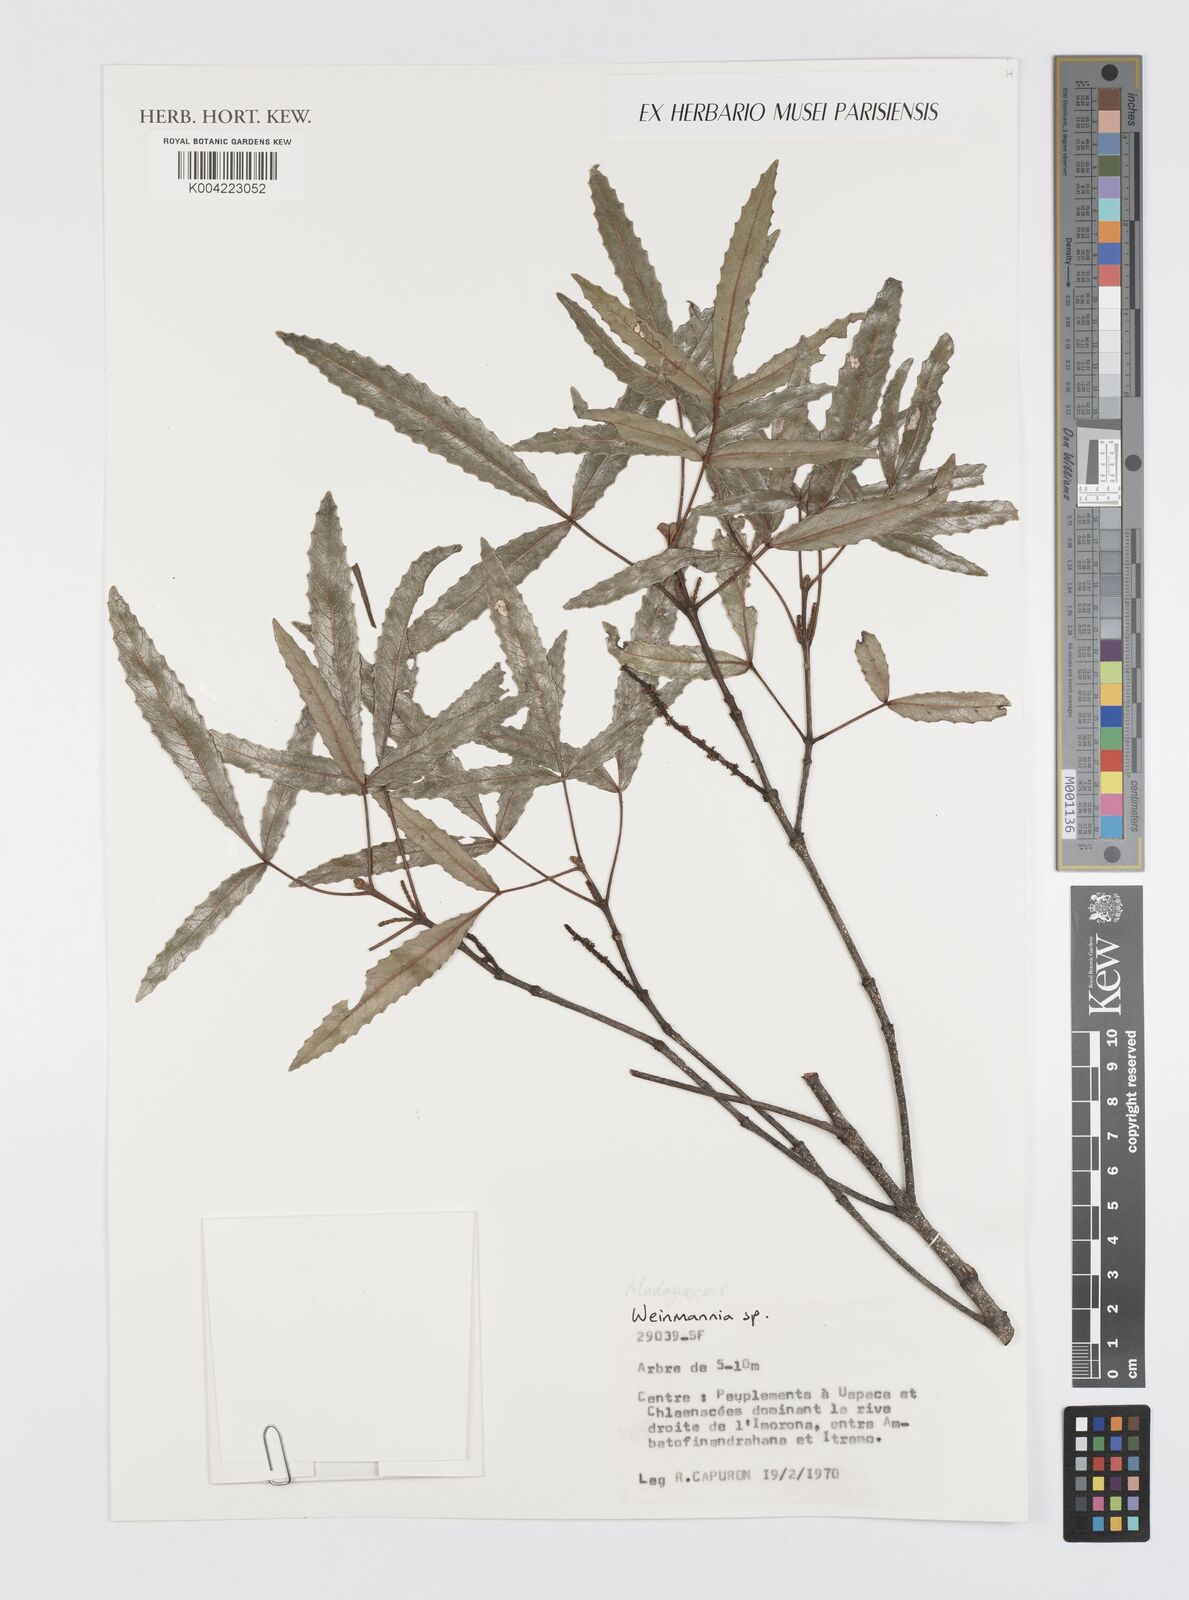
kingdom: Plantae
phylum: Tracheophyta
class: Magnoliopsida
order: Oxalidales
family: Cunoniaceae
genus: Weinmannia
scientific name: Weinmannia
